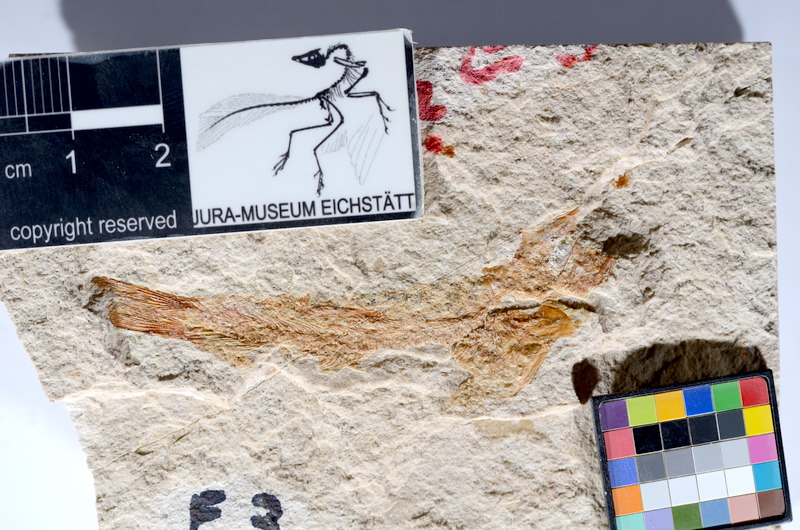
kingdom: Animalia
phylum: Chordata
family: Ascalaboidae
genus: Tharsis
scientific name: Tharsis dubius
